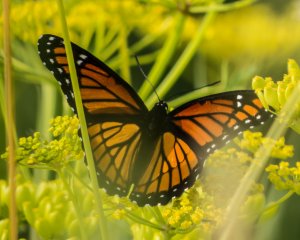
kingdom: Animalia
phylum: Arthropoda
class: Insecta
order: Lepidoptera
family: Nymphalidae
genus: Limenitis
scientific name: Limenitis archippus
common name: Viceroy
